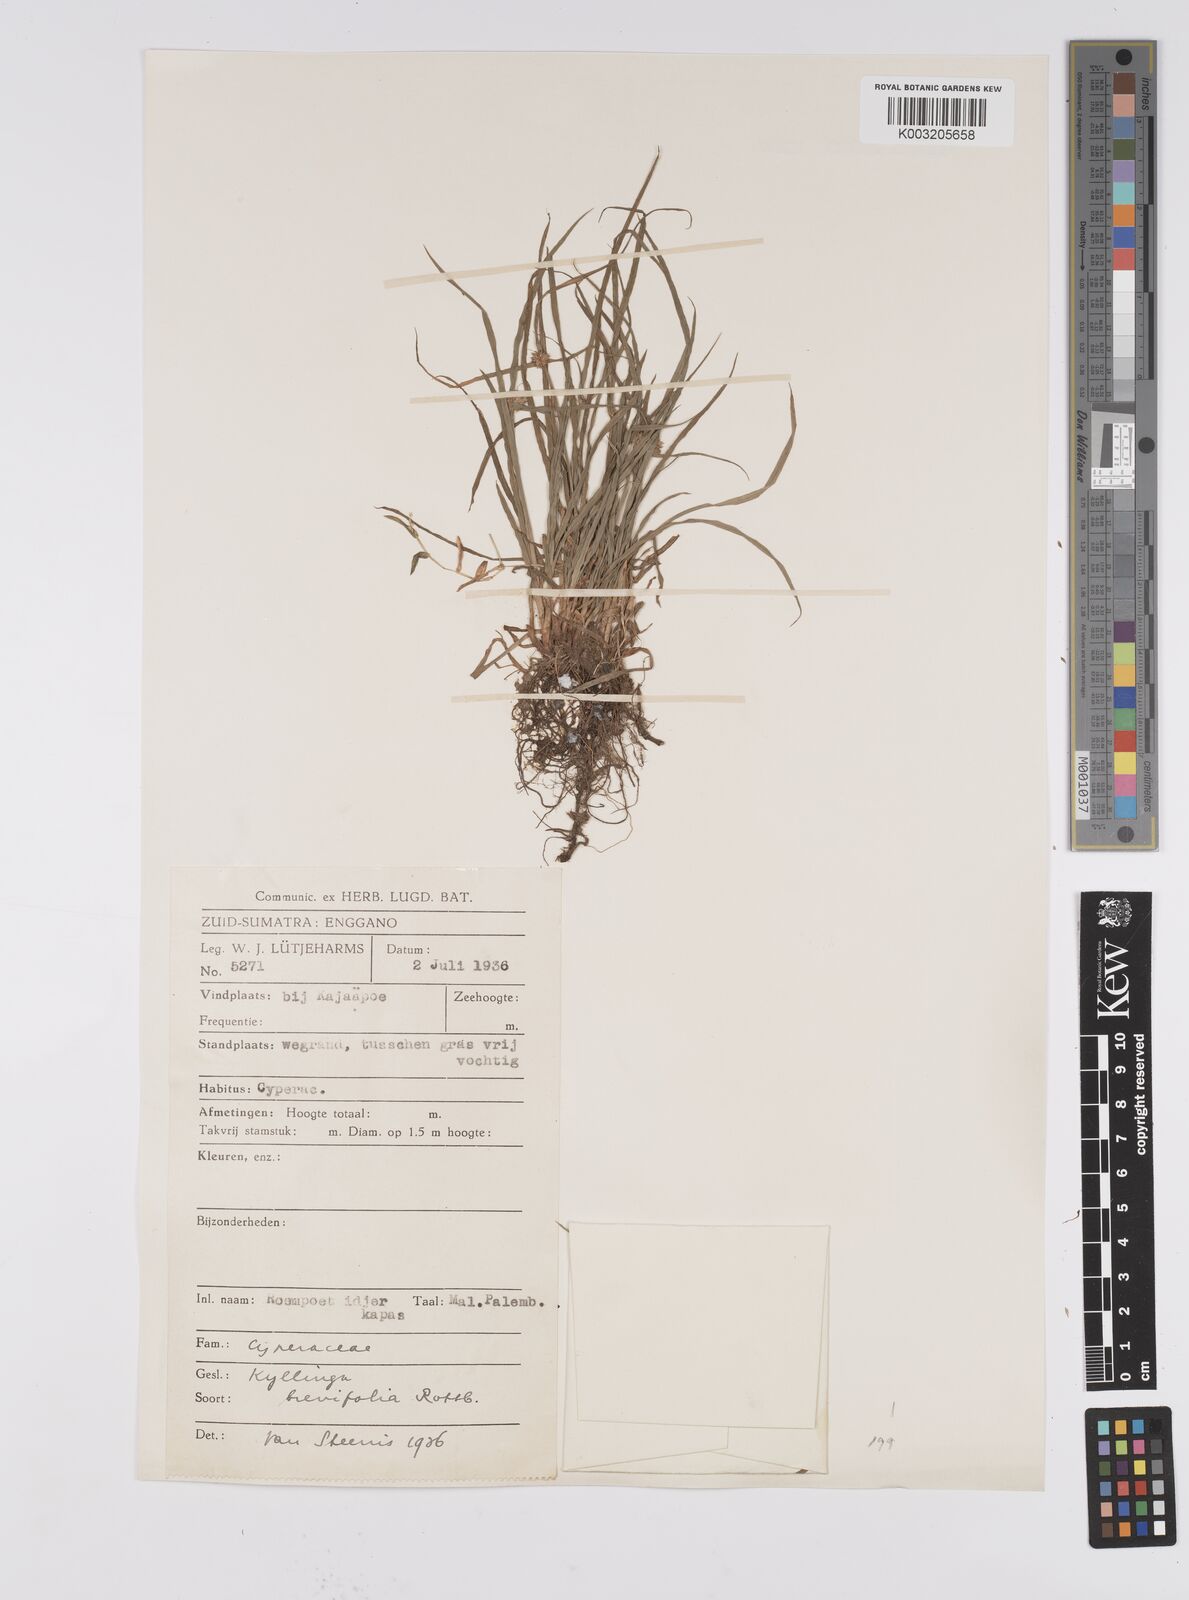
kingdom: Plantae
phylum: Tracheophyta
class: Liliopsida
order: Poales
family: Cyperaceae
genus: Cyperus
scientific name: Cyperus brevifolius
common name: Globe kyllinga
